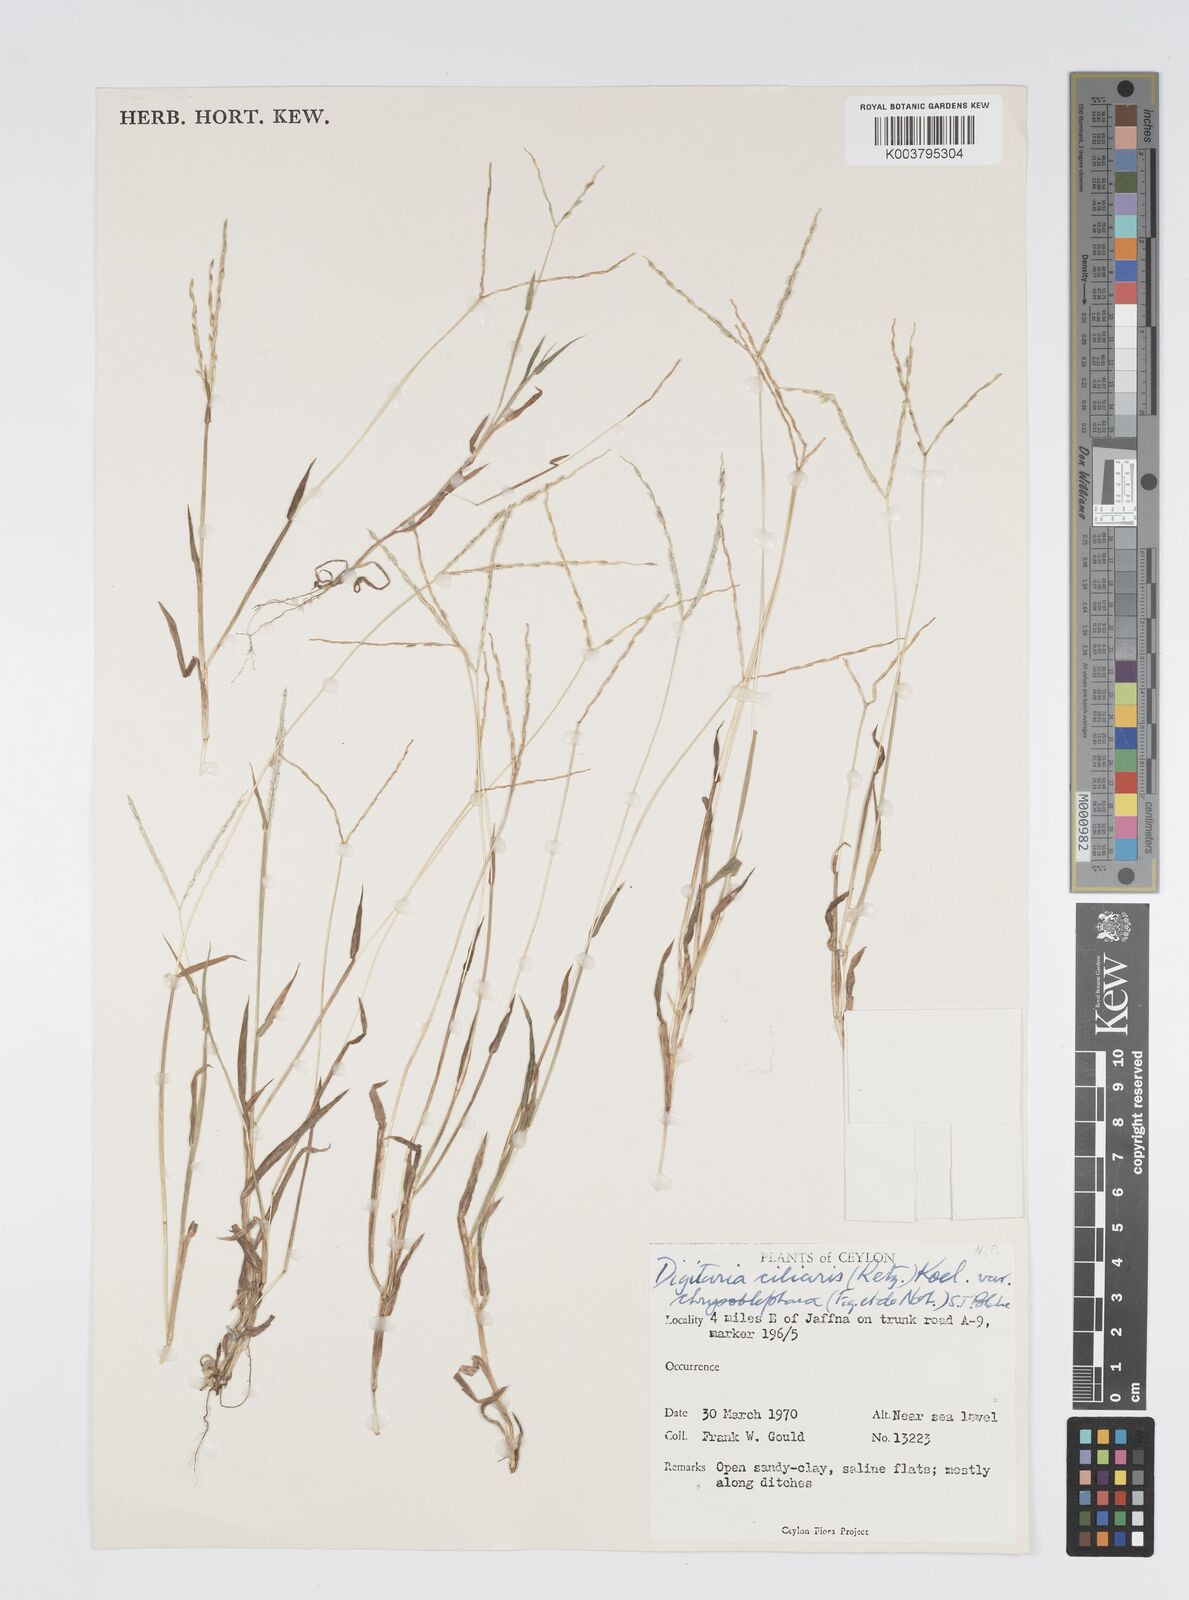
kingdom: Plantae
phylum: Tracheophyta
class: Liliopsida
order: Poales
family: Poaceae
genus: Digitaria
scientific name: Digitaria ciliaris
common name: Tropical finger-grass
